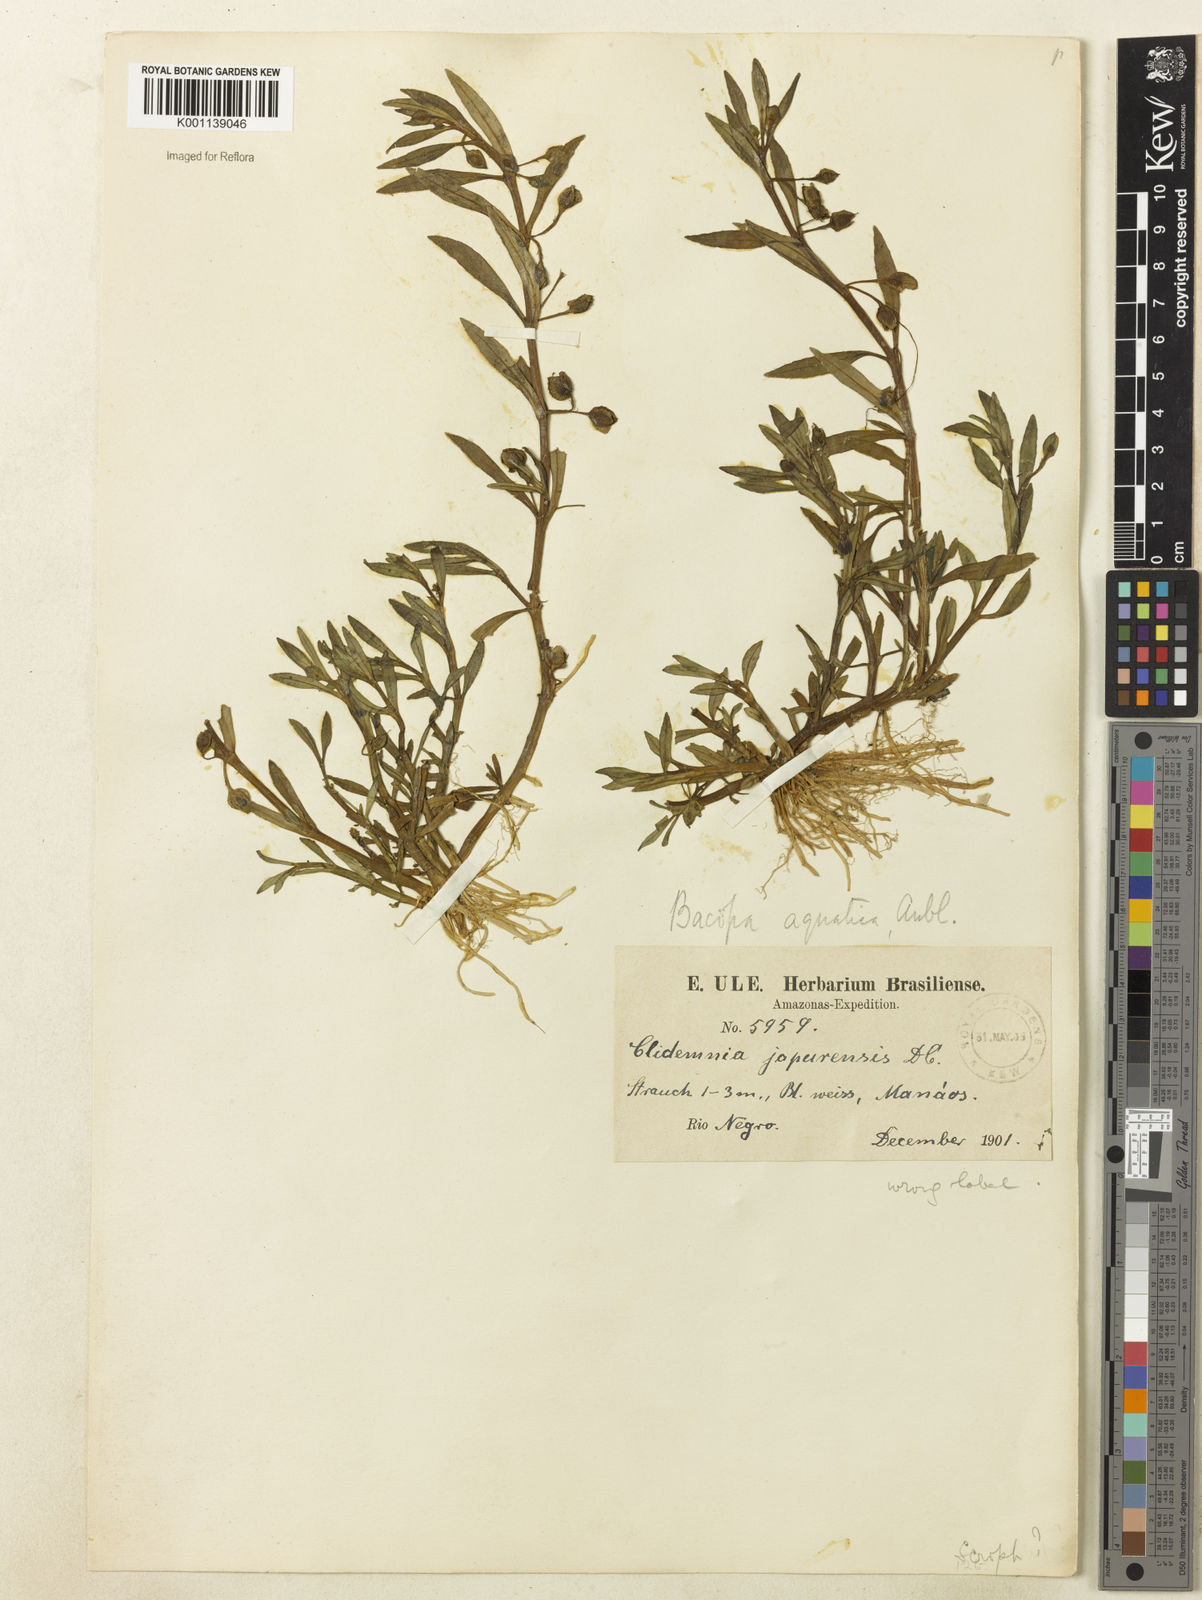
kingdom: Plantae
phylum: Tracheophyta
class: Magnoliopsida
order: Lamiales
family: Plantaginaceae
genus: Bacopa
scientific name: Bacopa aquatica
